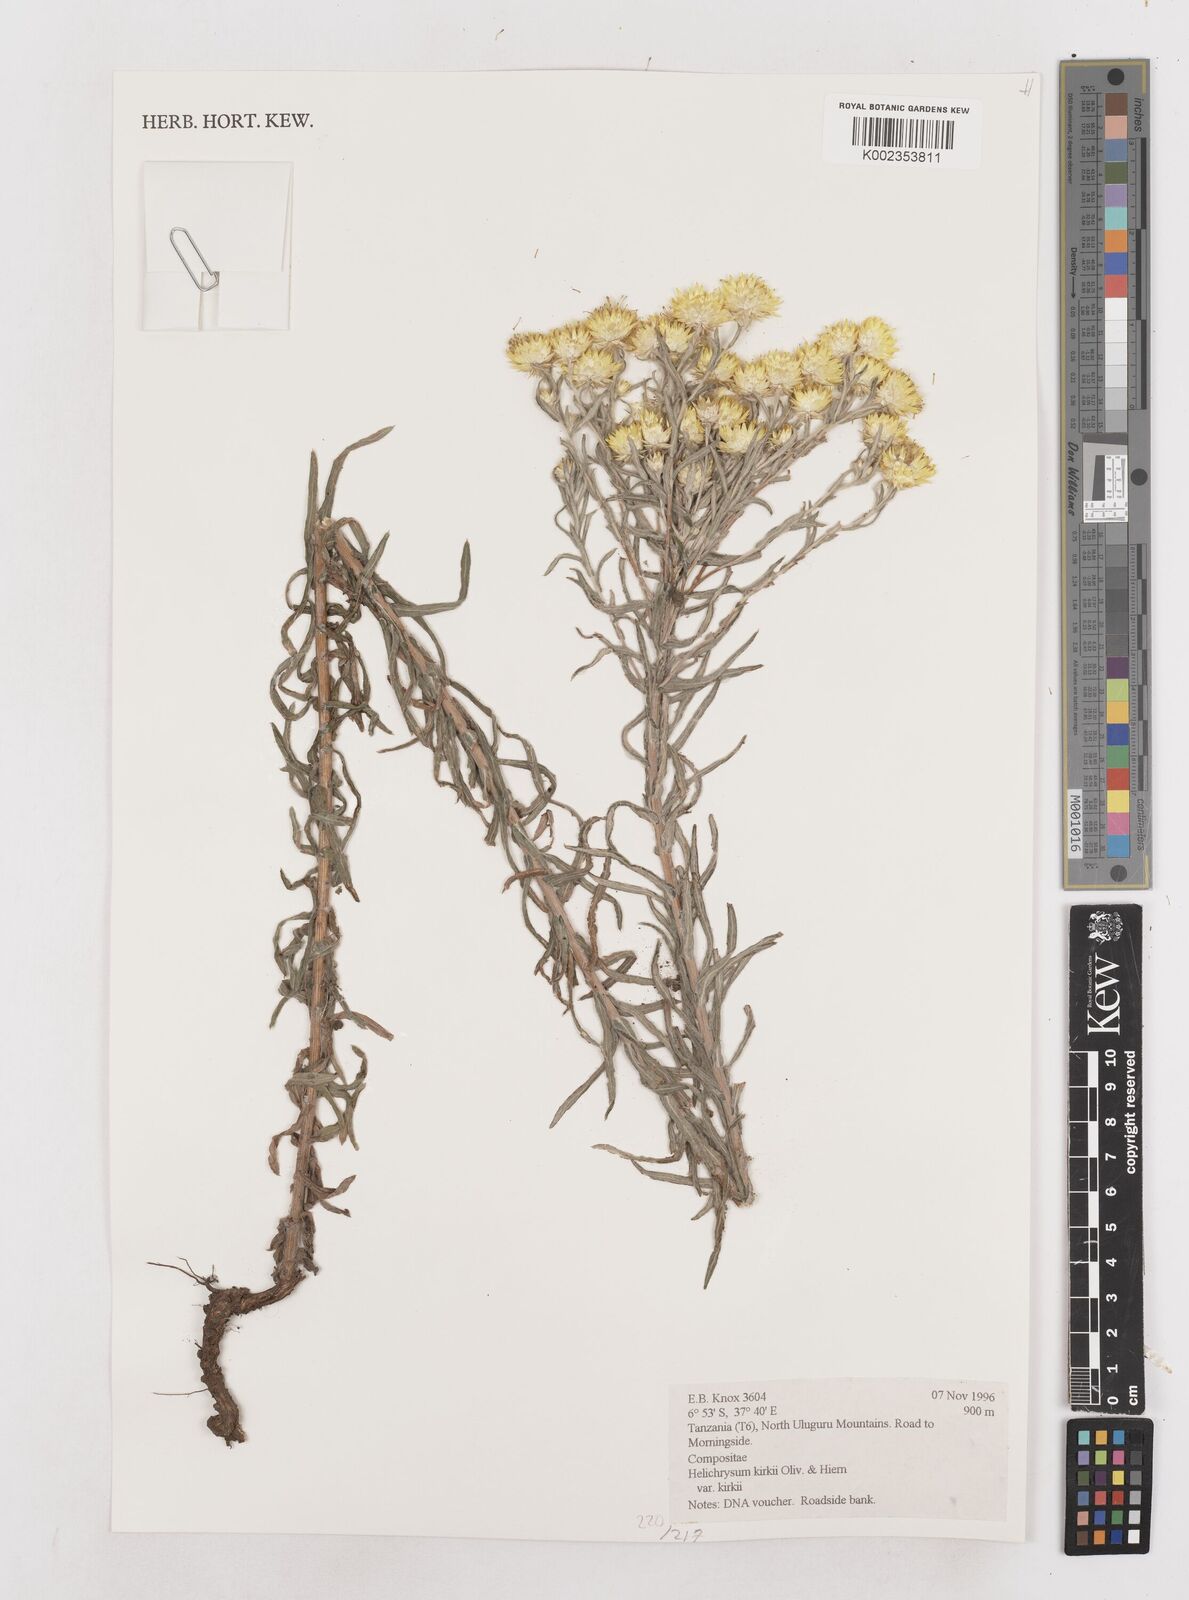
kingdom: Plantae
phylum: Tracheophyta
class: Magnoliopsida
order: Asterales
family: Asteraceae
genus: Helichrysum
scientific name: Helichrysum kirkii
